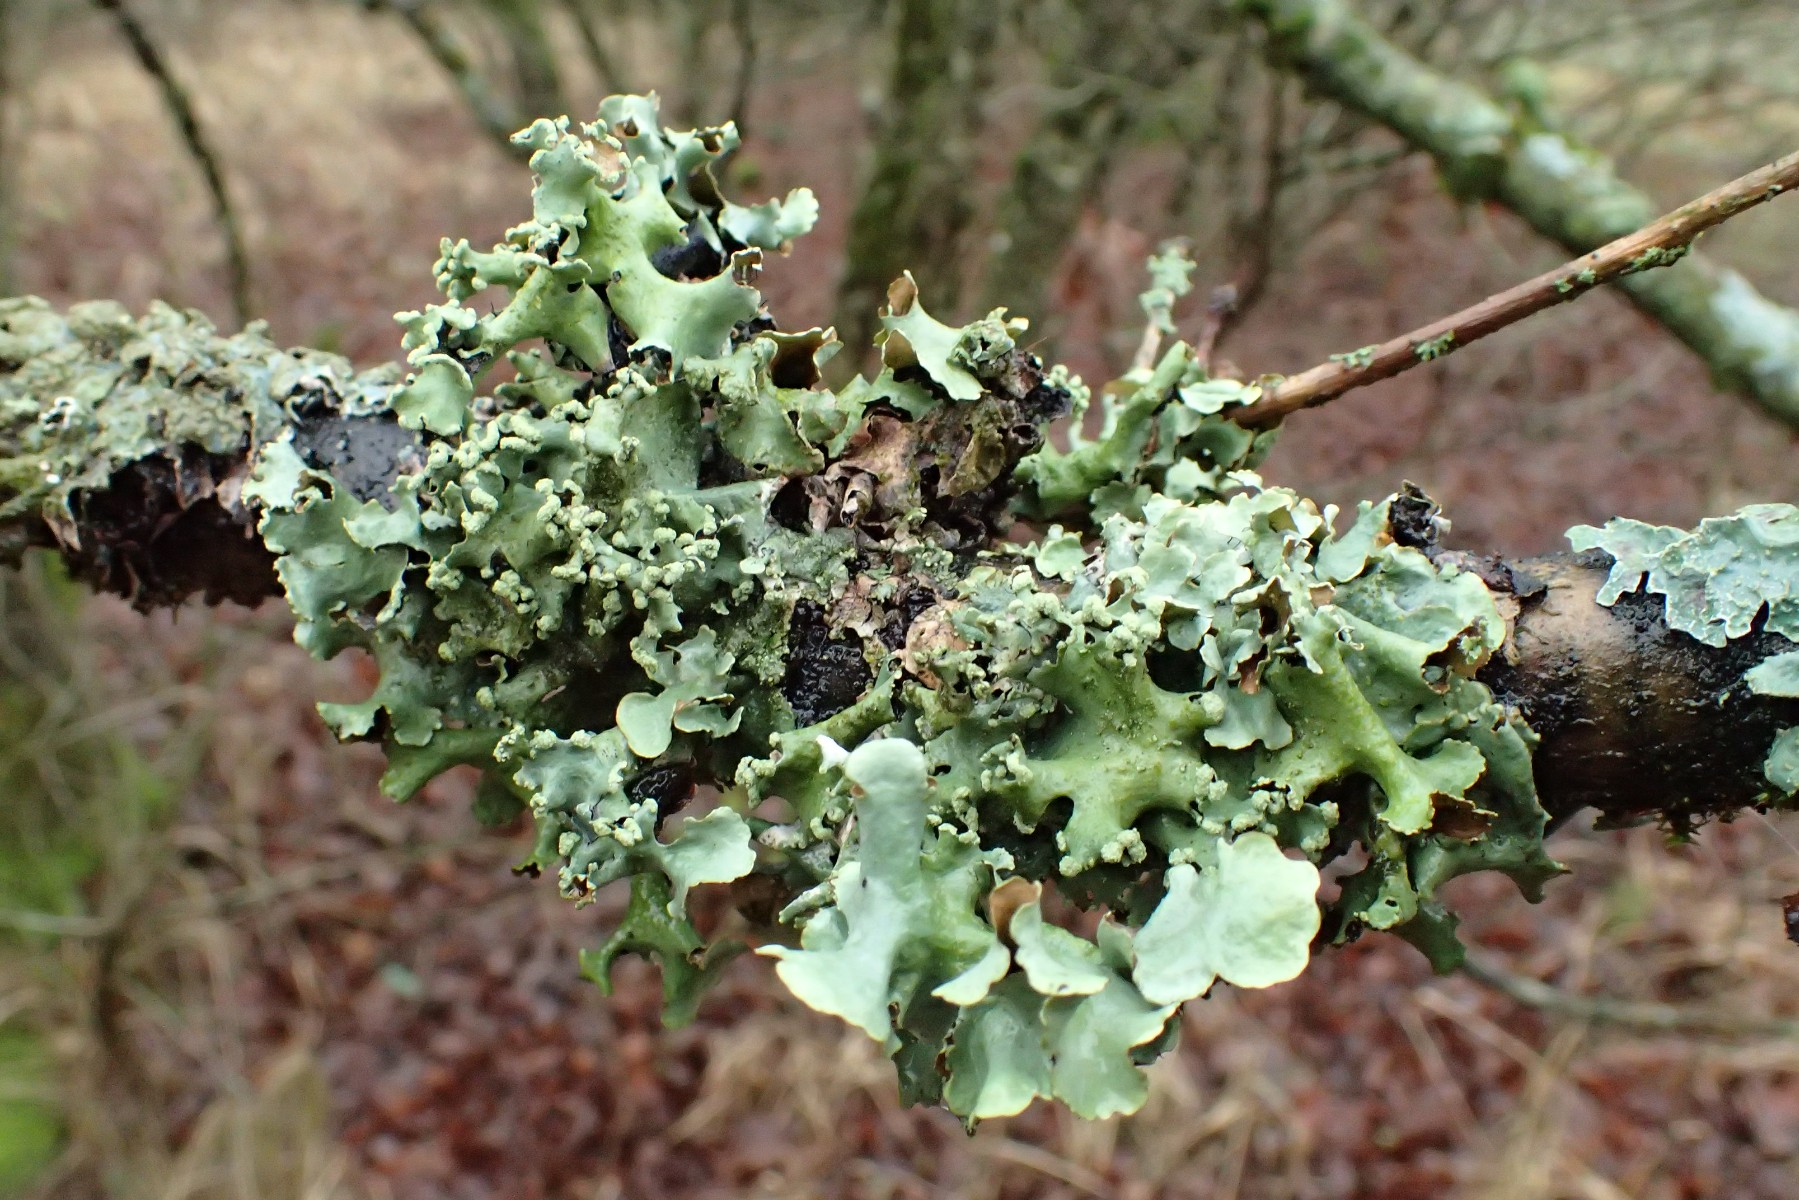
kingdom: Fungi
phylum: Ascomycota
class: Lecanoromycetes
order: Lecanorales
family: Parmeliaceae
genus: Parmotrema
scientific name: Parmotrema perlatum
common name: trådet skållav
